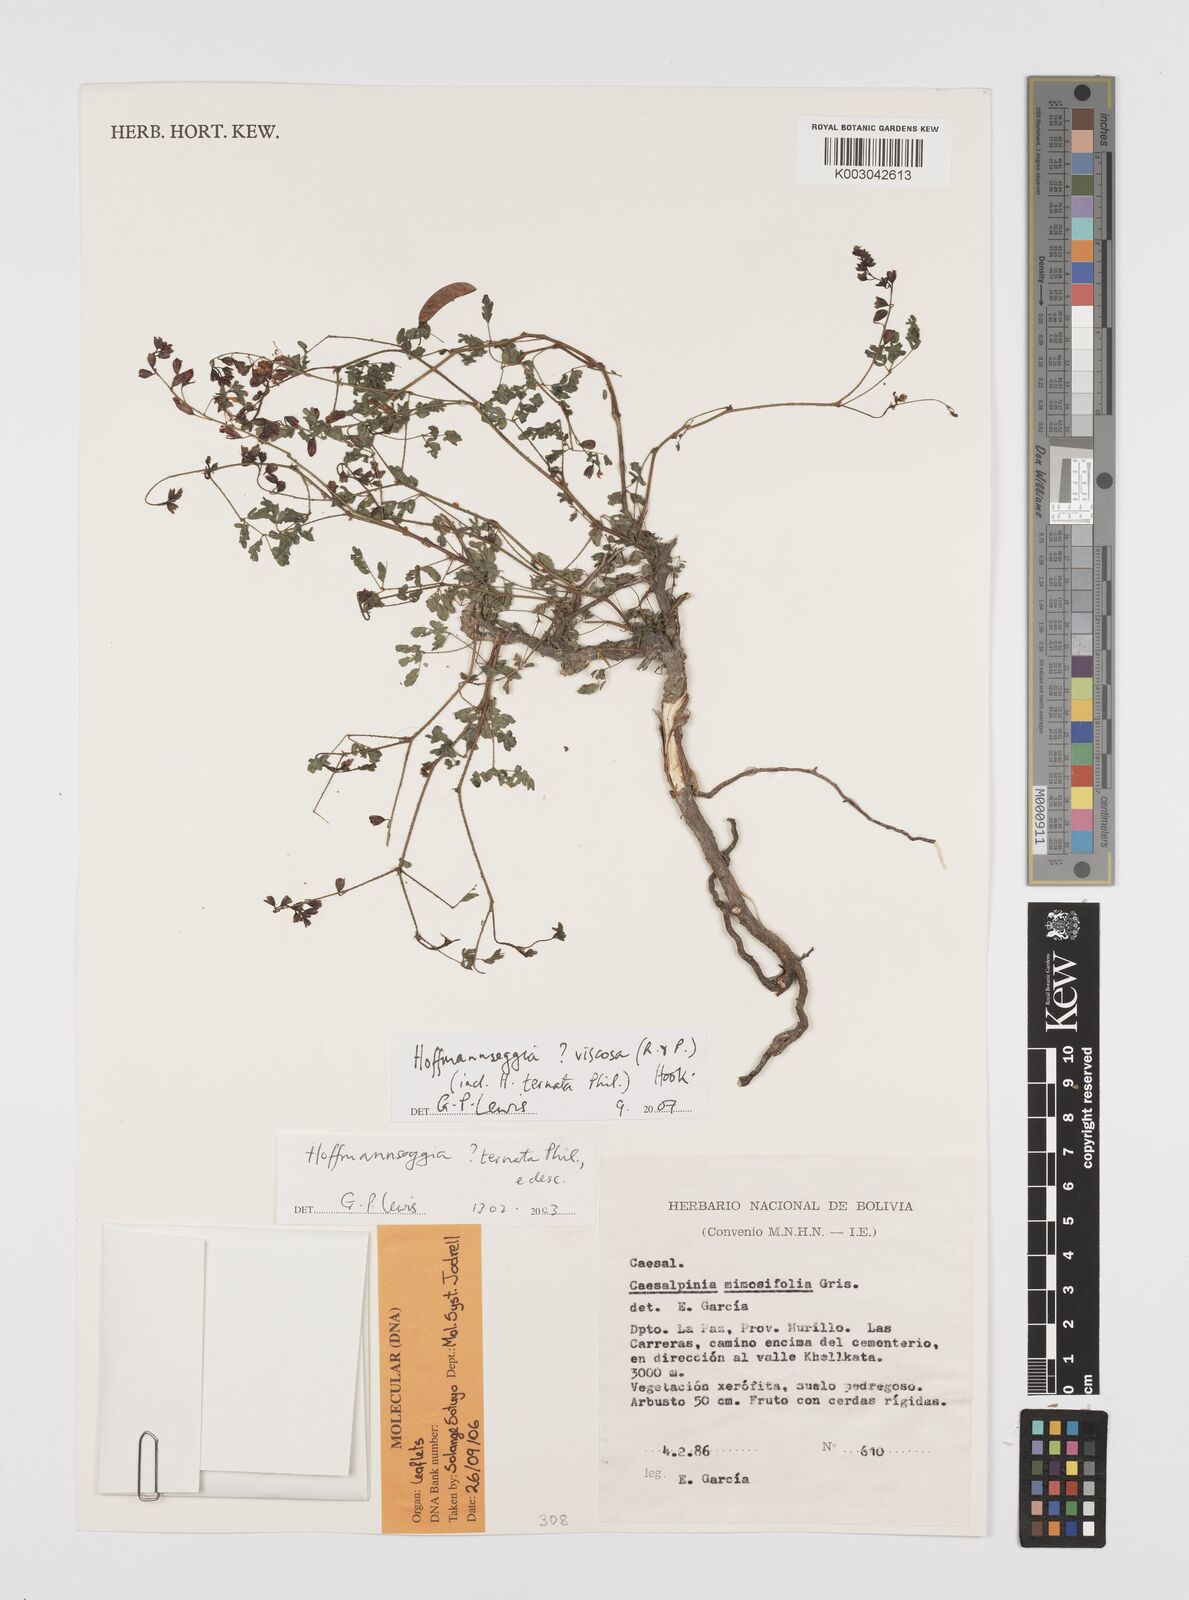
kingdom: Plantae
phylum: Tracheophyta
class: Magnoliopsida
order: Fabales
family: Fabaceae
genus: Hoffmannseggia
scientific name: Hoffmannseggia viscosa
